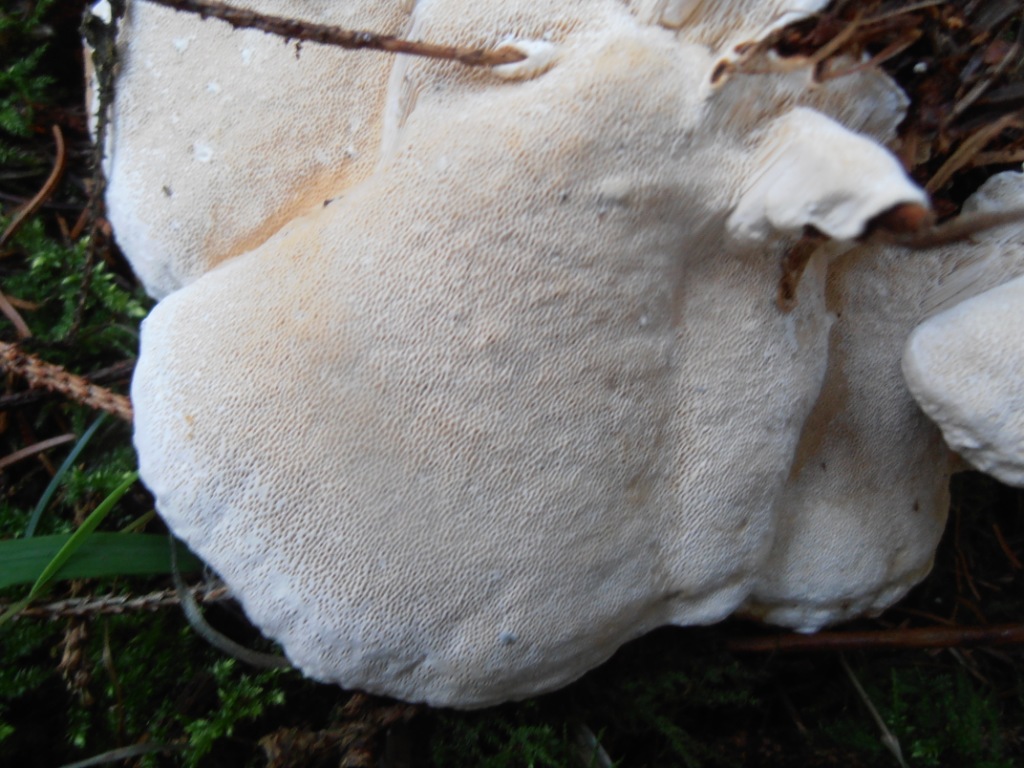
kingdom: Fungi
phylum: Basidiomycota
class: Agaricomycetes
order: Russulales
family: Bondarzewiaceae
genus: Heterobasidion
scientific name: Heterobasidion annosum
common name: almindelig rodfordærver
